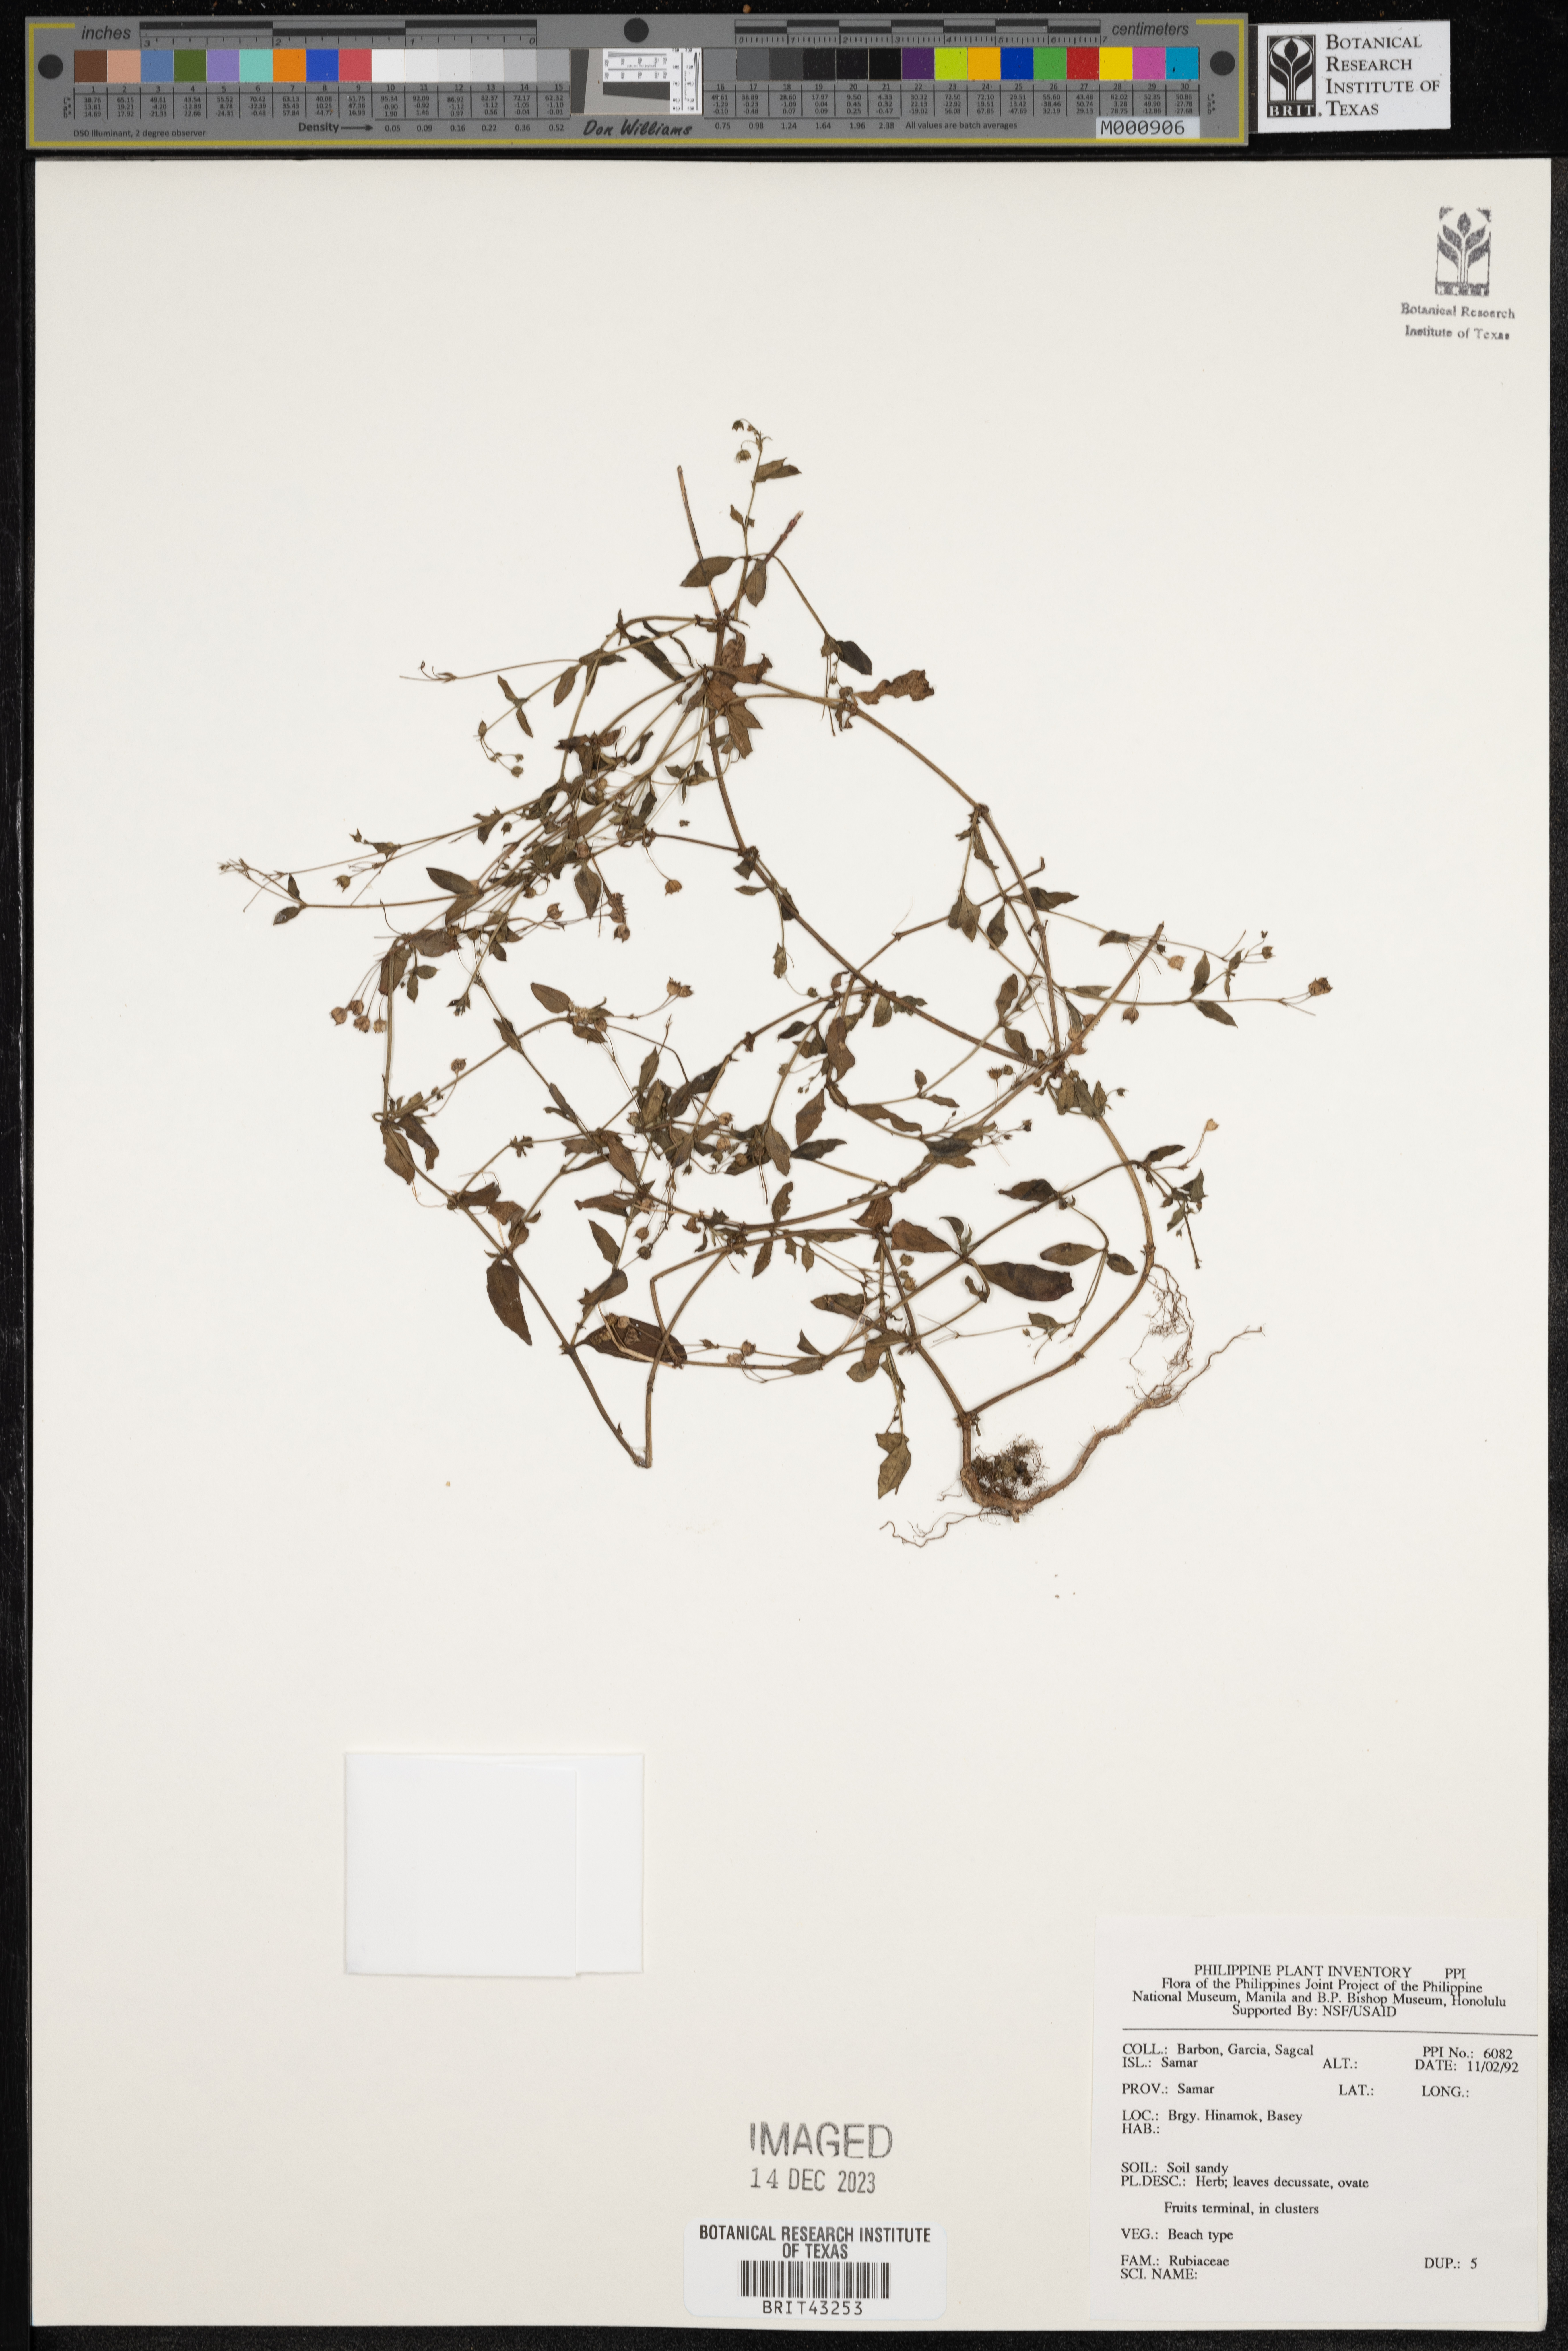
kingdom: Plantae
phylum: Tracheophyta
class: Magnoliopsida
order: Gentianales
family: Rubiaceae
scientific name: Rubiaceae
